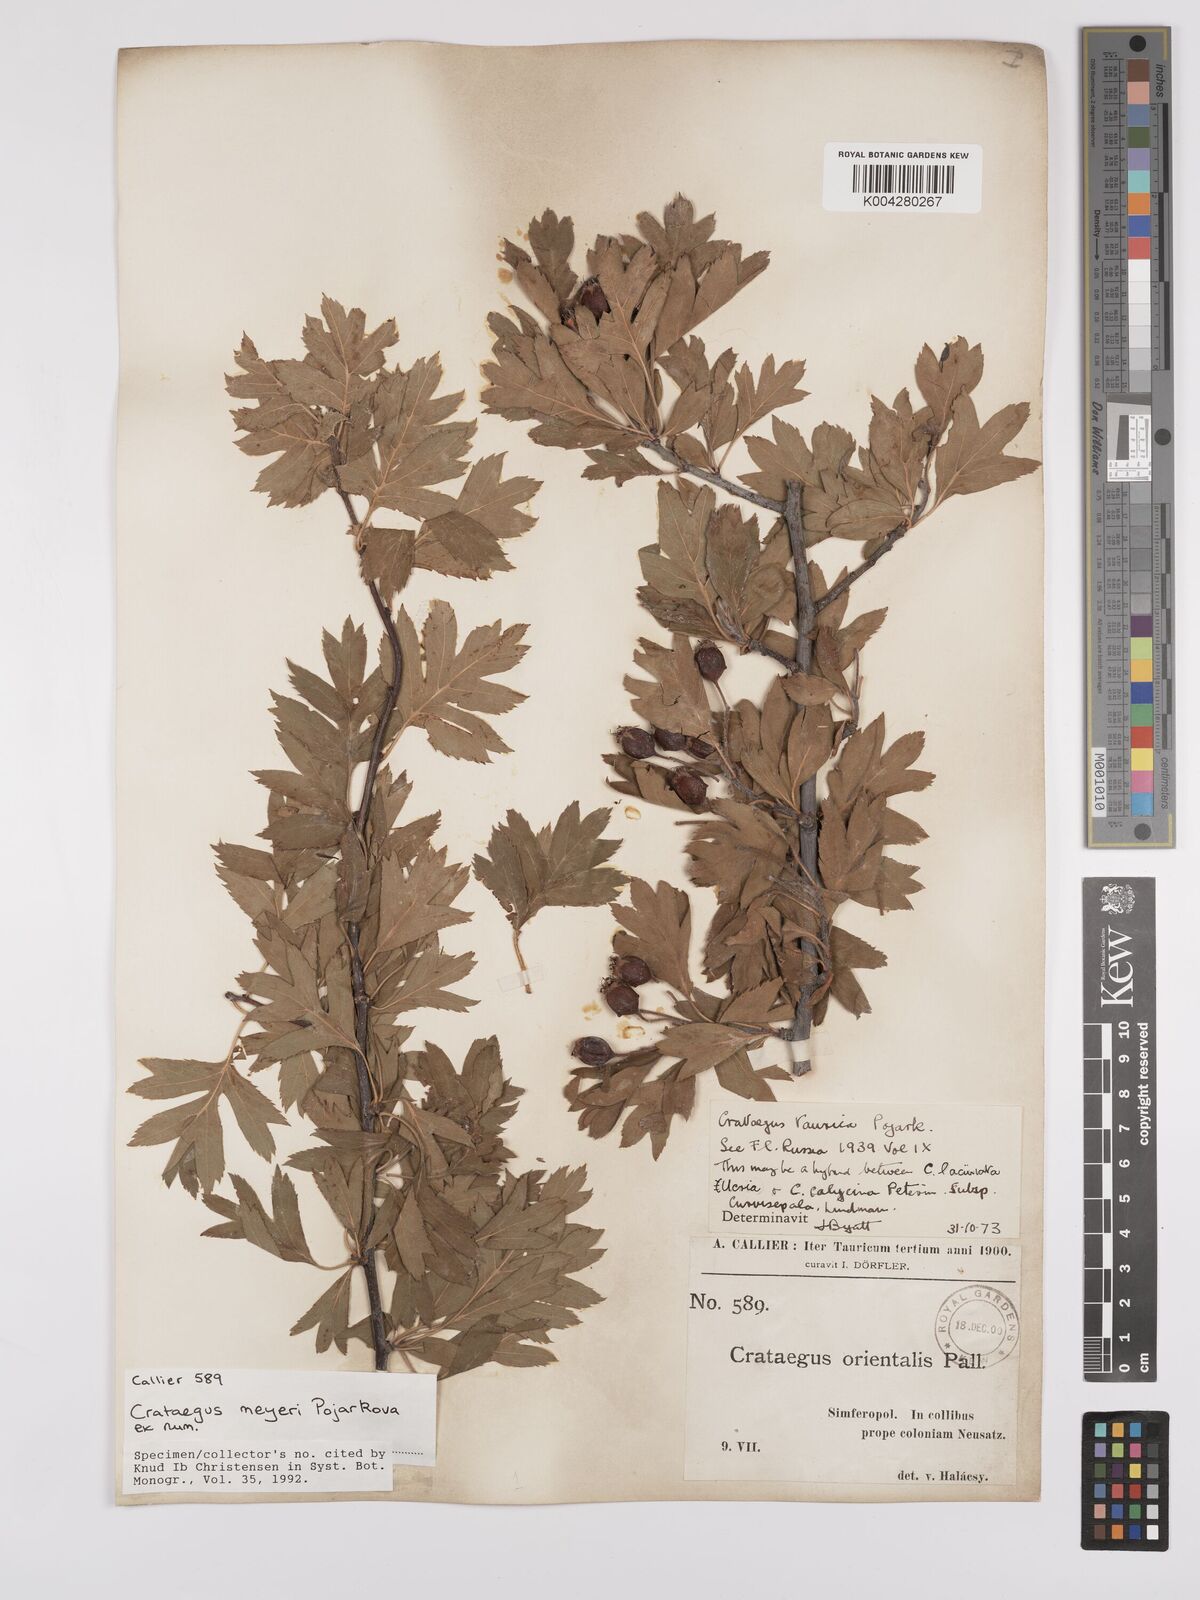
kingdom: Plantae
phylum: Tracheophyta
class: Magnoliopsida
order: Rosales
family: Rosaceae
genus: Crataegus
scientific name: Crataegus meyeri
